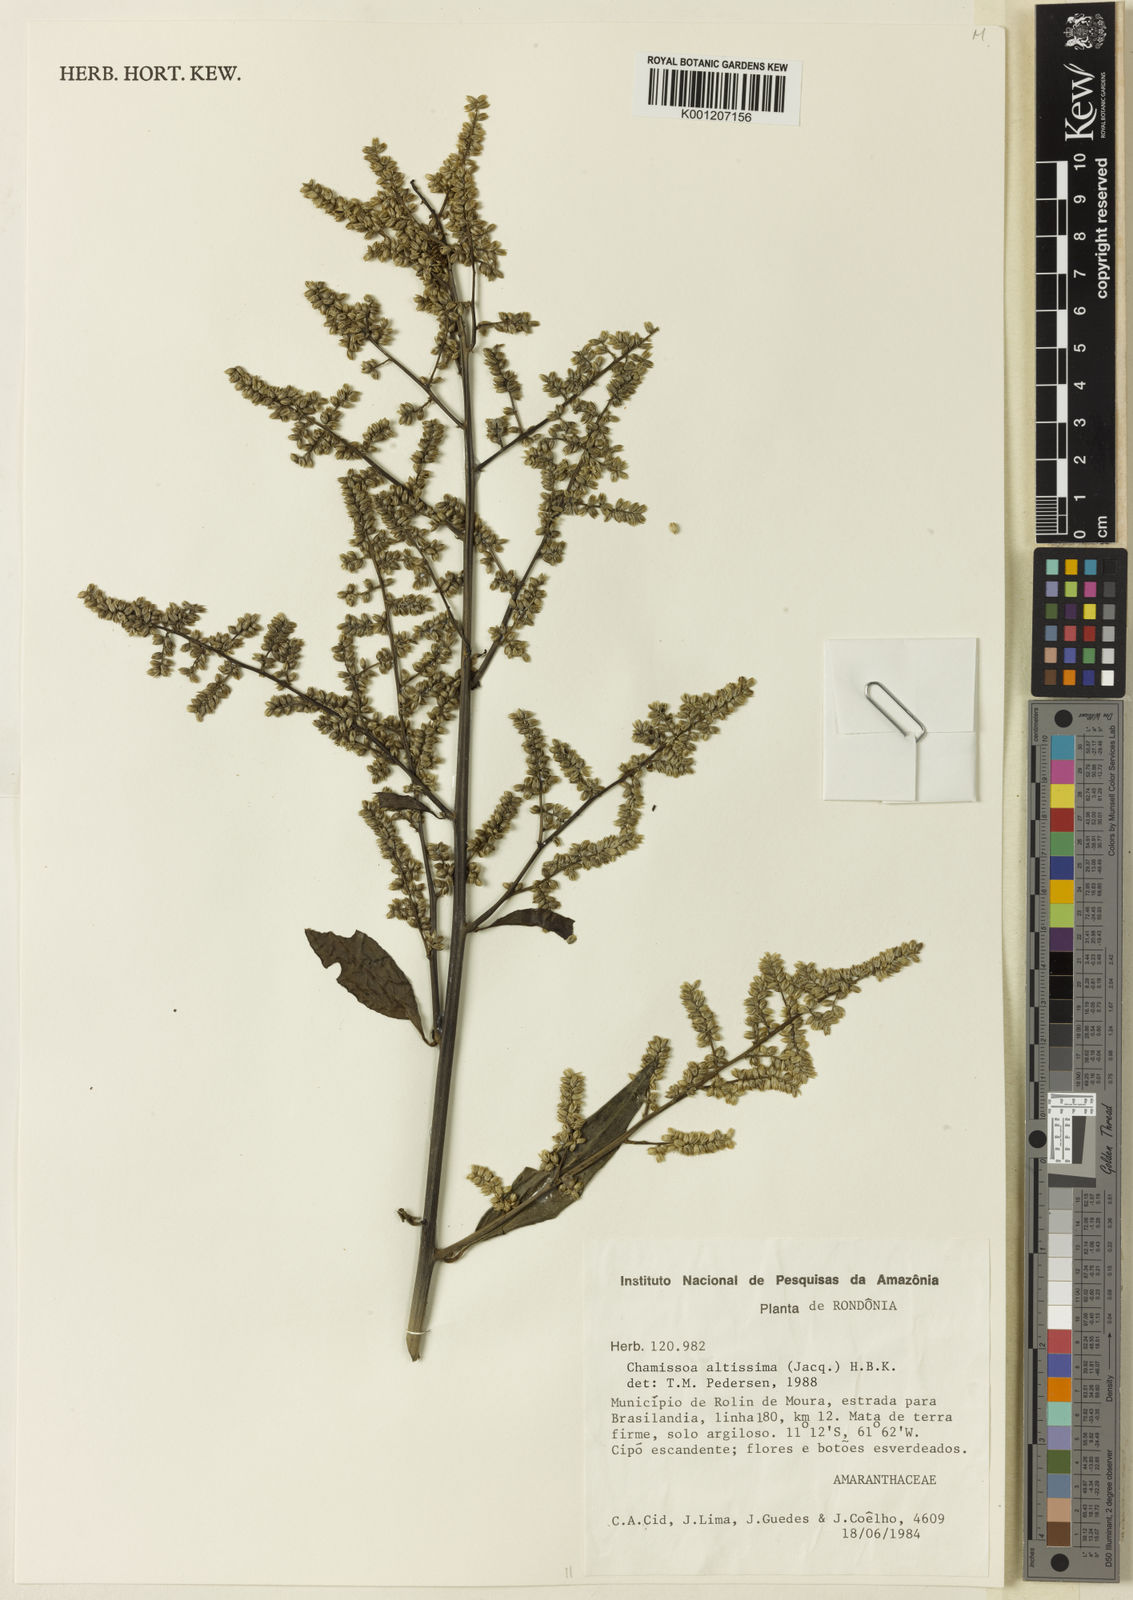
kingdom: Plantae
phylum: Tracheophyta
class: Magnoliopsida
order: Caryophyllales
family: Amaranthaceae
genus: Chamissoa
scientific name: Chamissoa altissima
